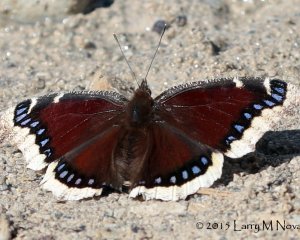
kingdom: Animalia
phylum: Arthropoda
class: Insecta
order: Lepidoptera
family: Nymphalidae
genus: Nymphalis
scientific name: Nymphalis antiopa
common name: Mourning Cloak
